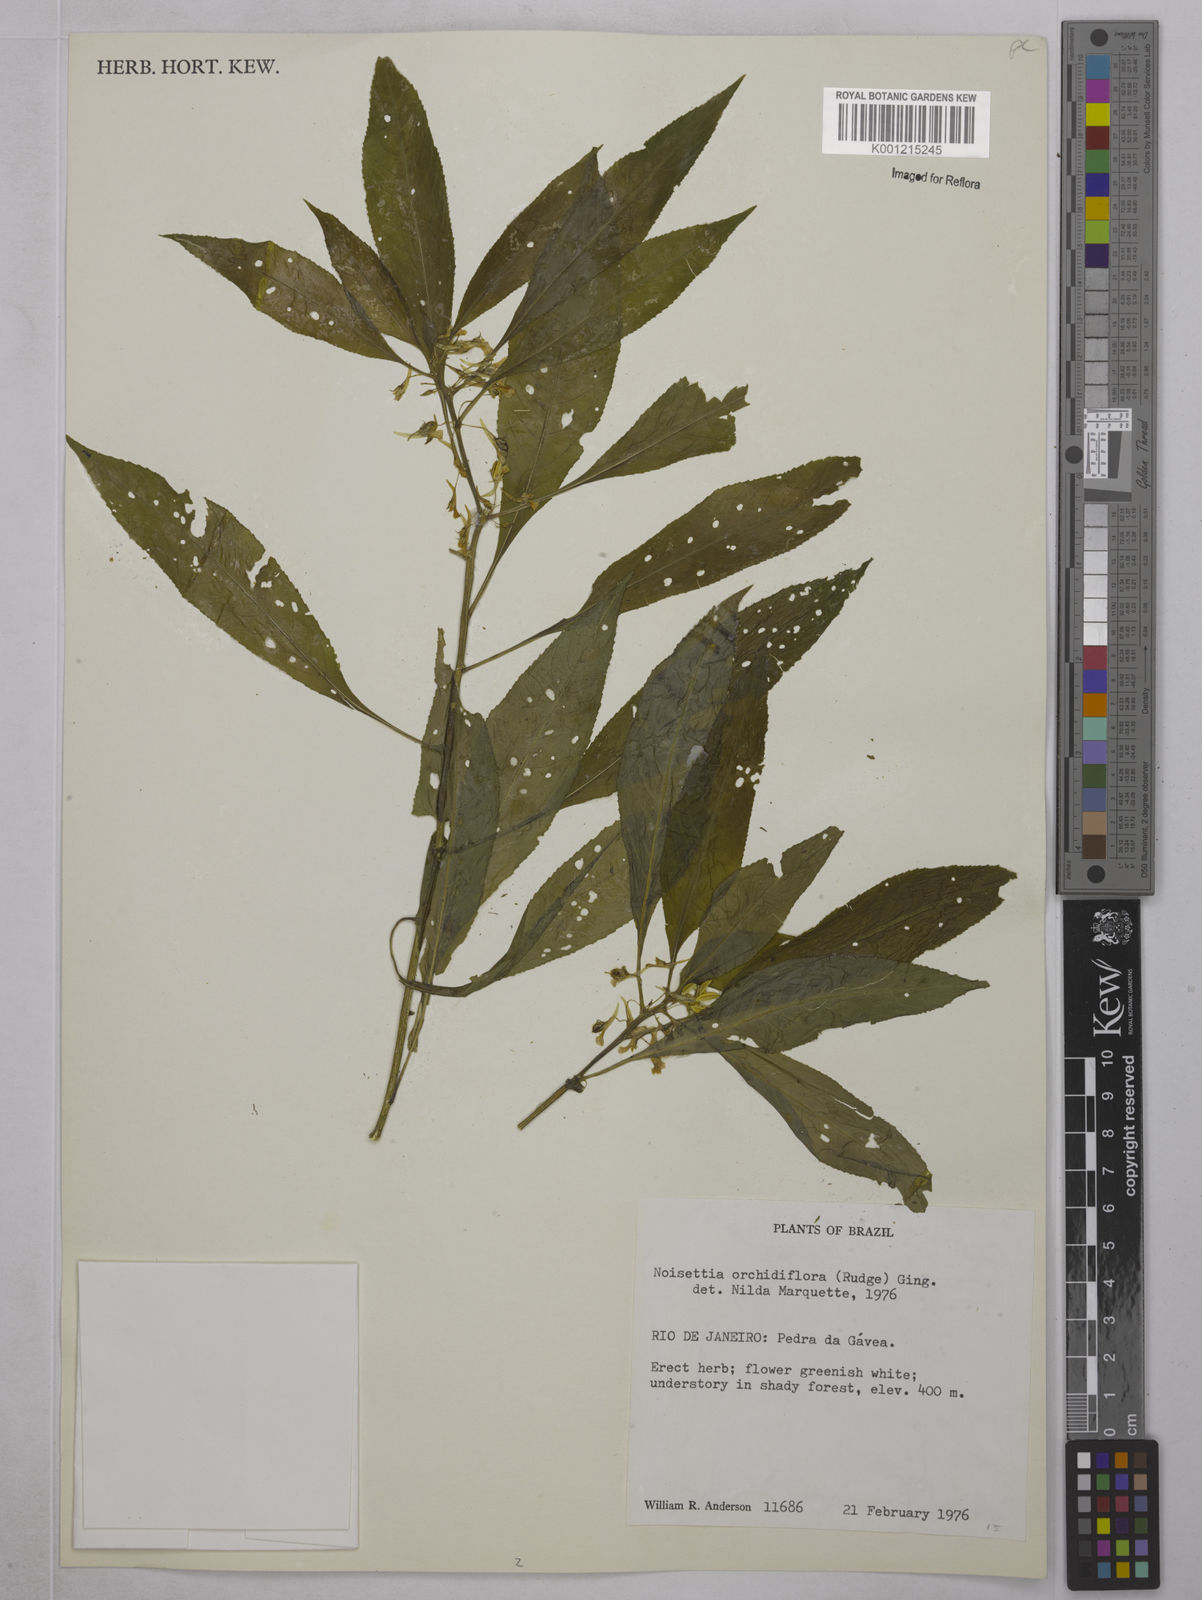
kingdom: Plantae
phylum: Tracheophyta
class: Magnoliopsida
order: Malpighiales
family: Violaceae
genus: Noisettia
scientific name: Noisettia orchidiflora
